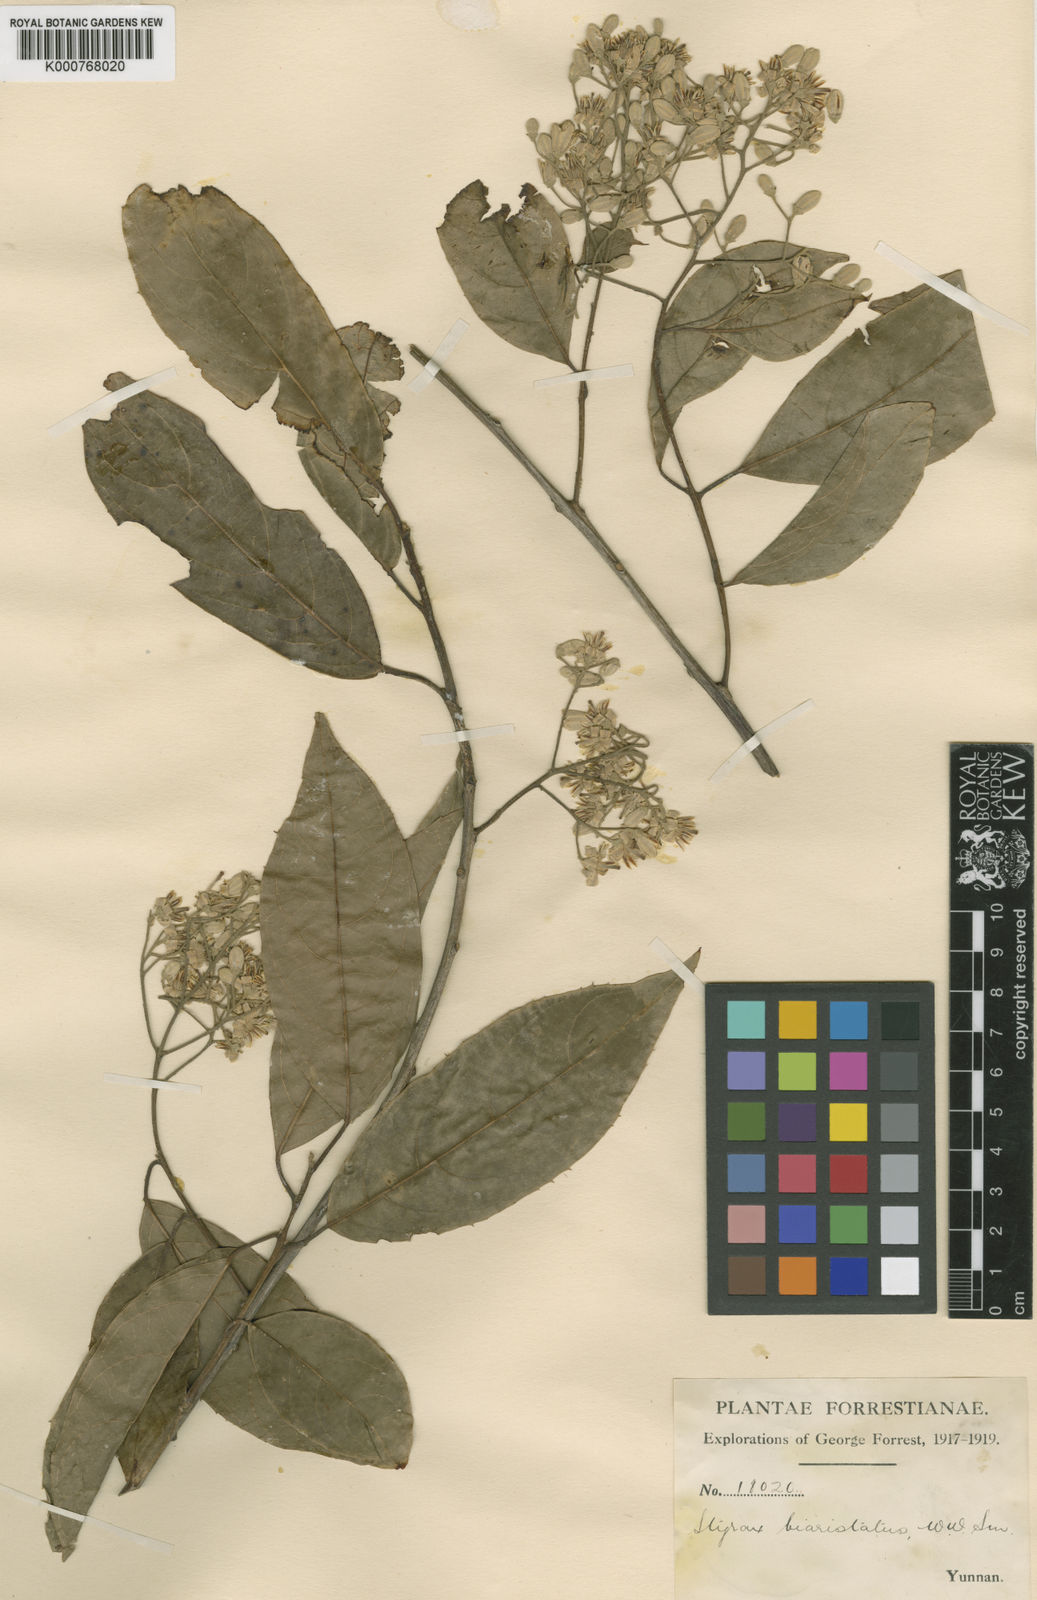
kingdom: Plantae
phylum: Tracheophyta
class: Magnoliopsida
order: Ericales
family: Styracaceae
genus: Huodendron
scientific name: Huodendron biaristatum
